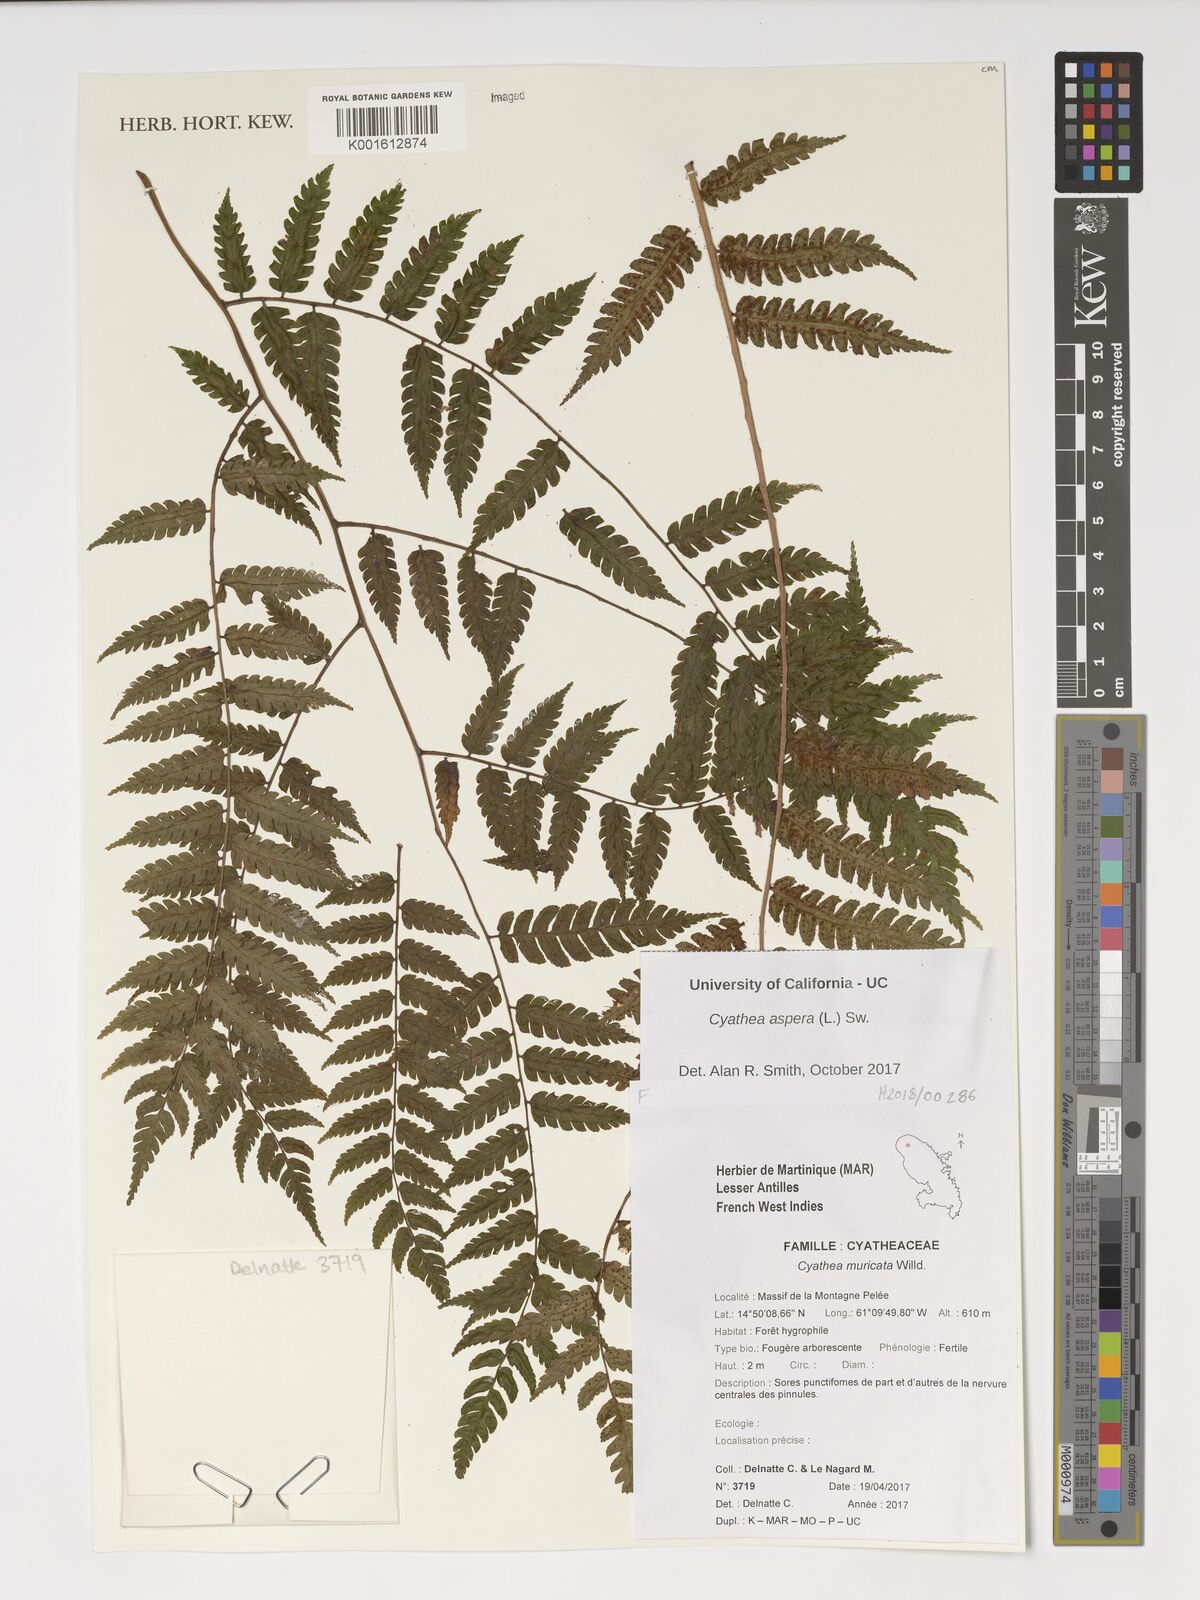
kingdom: Plantae
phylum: Tracheophyta
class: Polypodiopsida
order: Cyatheales
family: Cyatheaceae
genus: Cyathea
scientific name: Cyathea aspera
